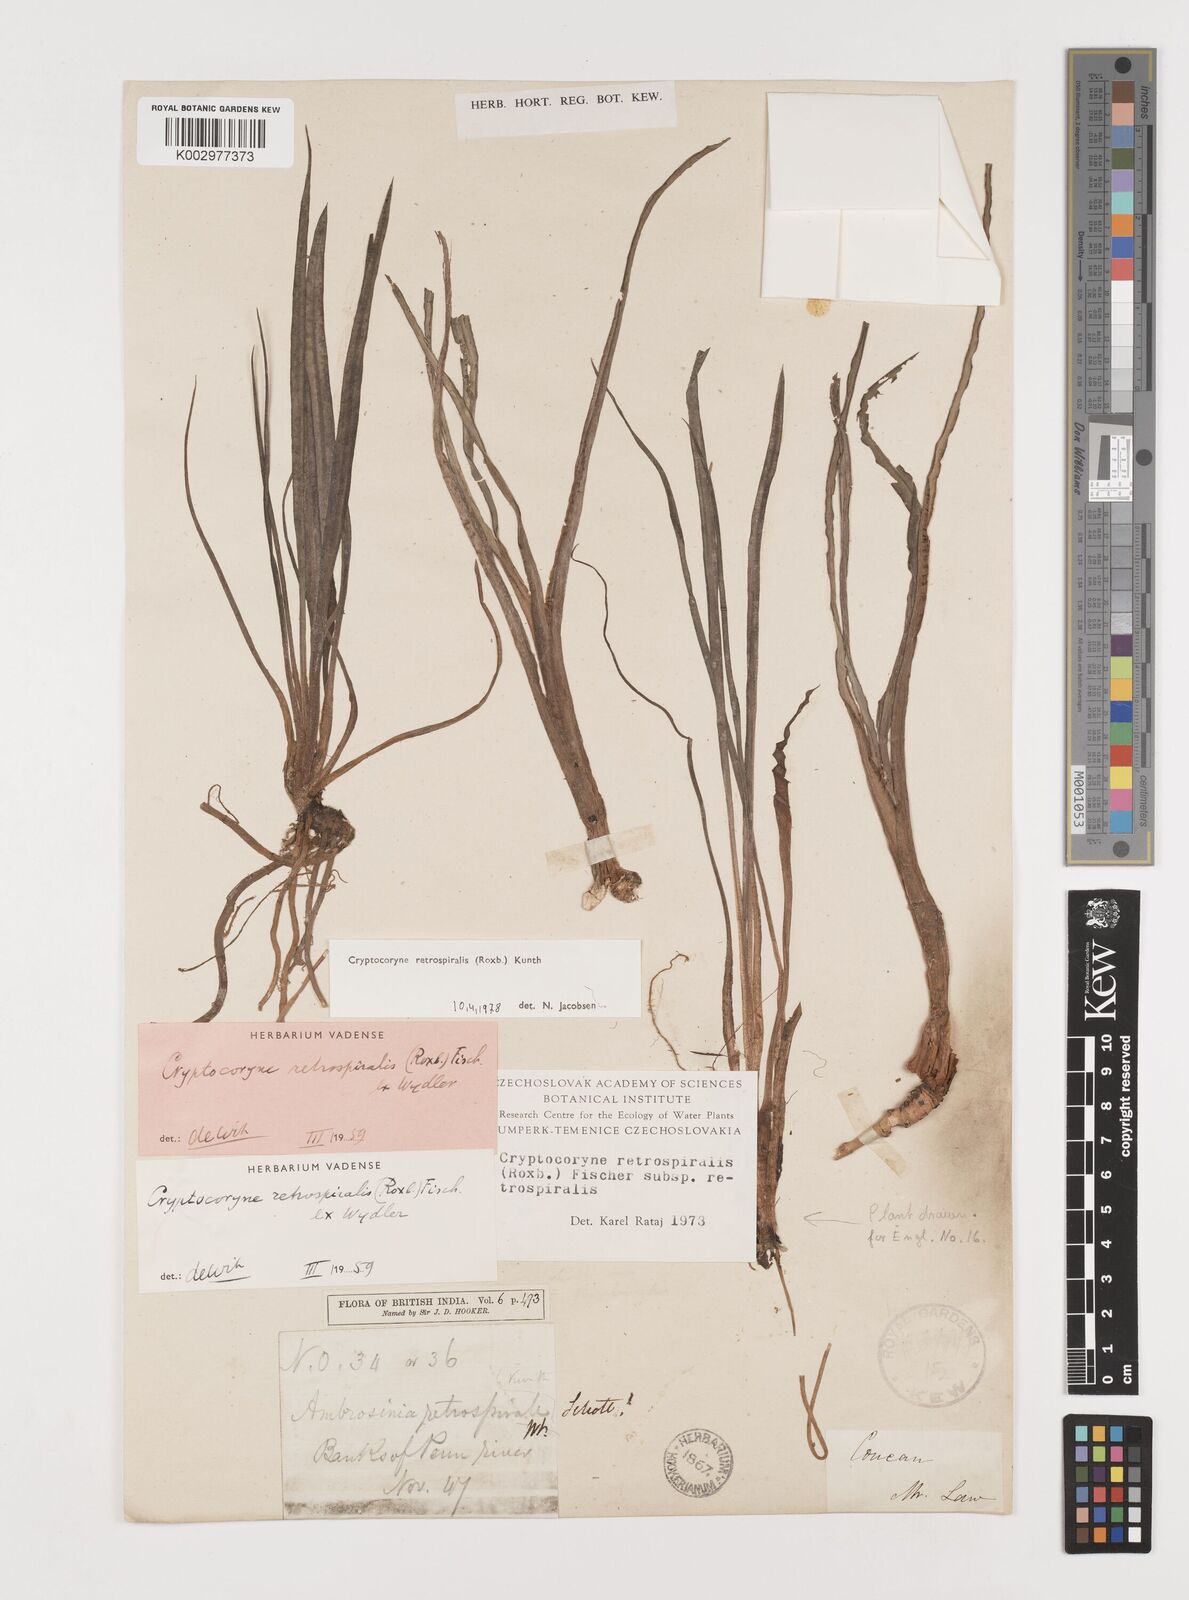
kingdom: Plantae
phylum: Tracheophyta
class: Liliopsida
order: Alismatales
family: Araceae
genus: Cryptocoryne
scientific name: Cryptocoryne retrospiralis
